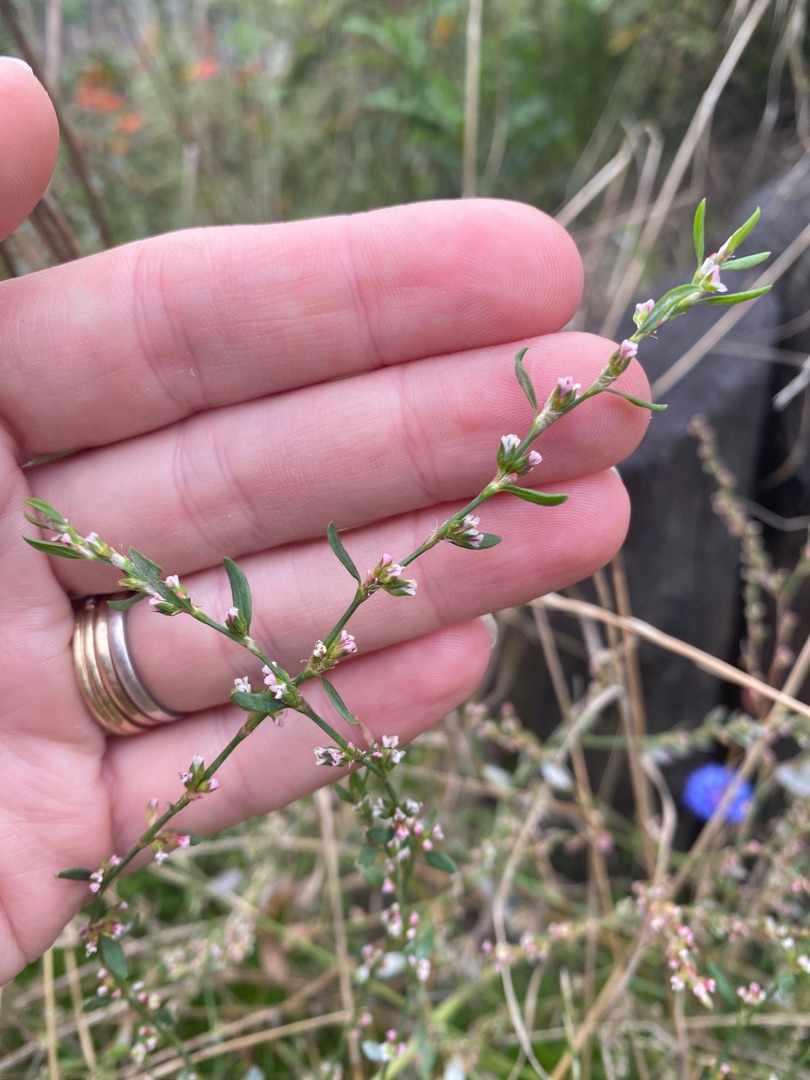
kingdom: Plantae
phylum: Tracheophyta
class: Magnoliopsida
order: Caryophyllales
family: Polygonaceae
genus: Polygonum
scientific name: Polygonum aviculare
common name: Vej-pileurt
